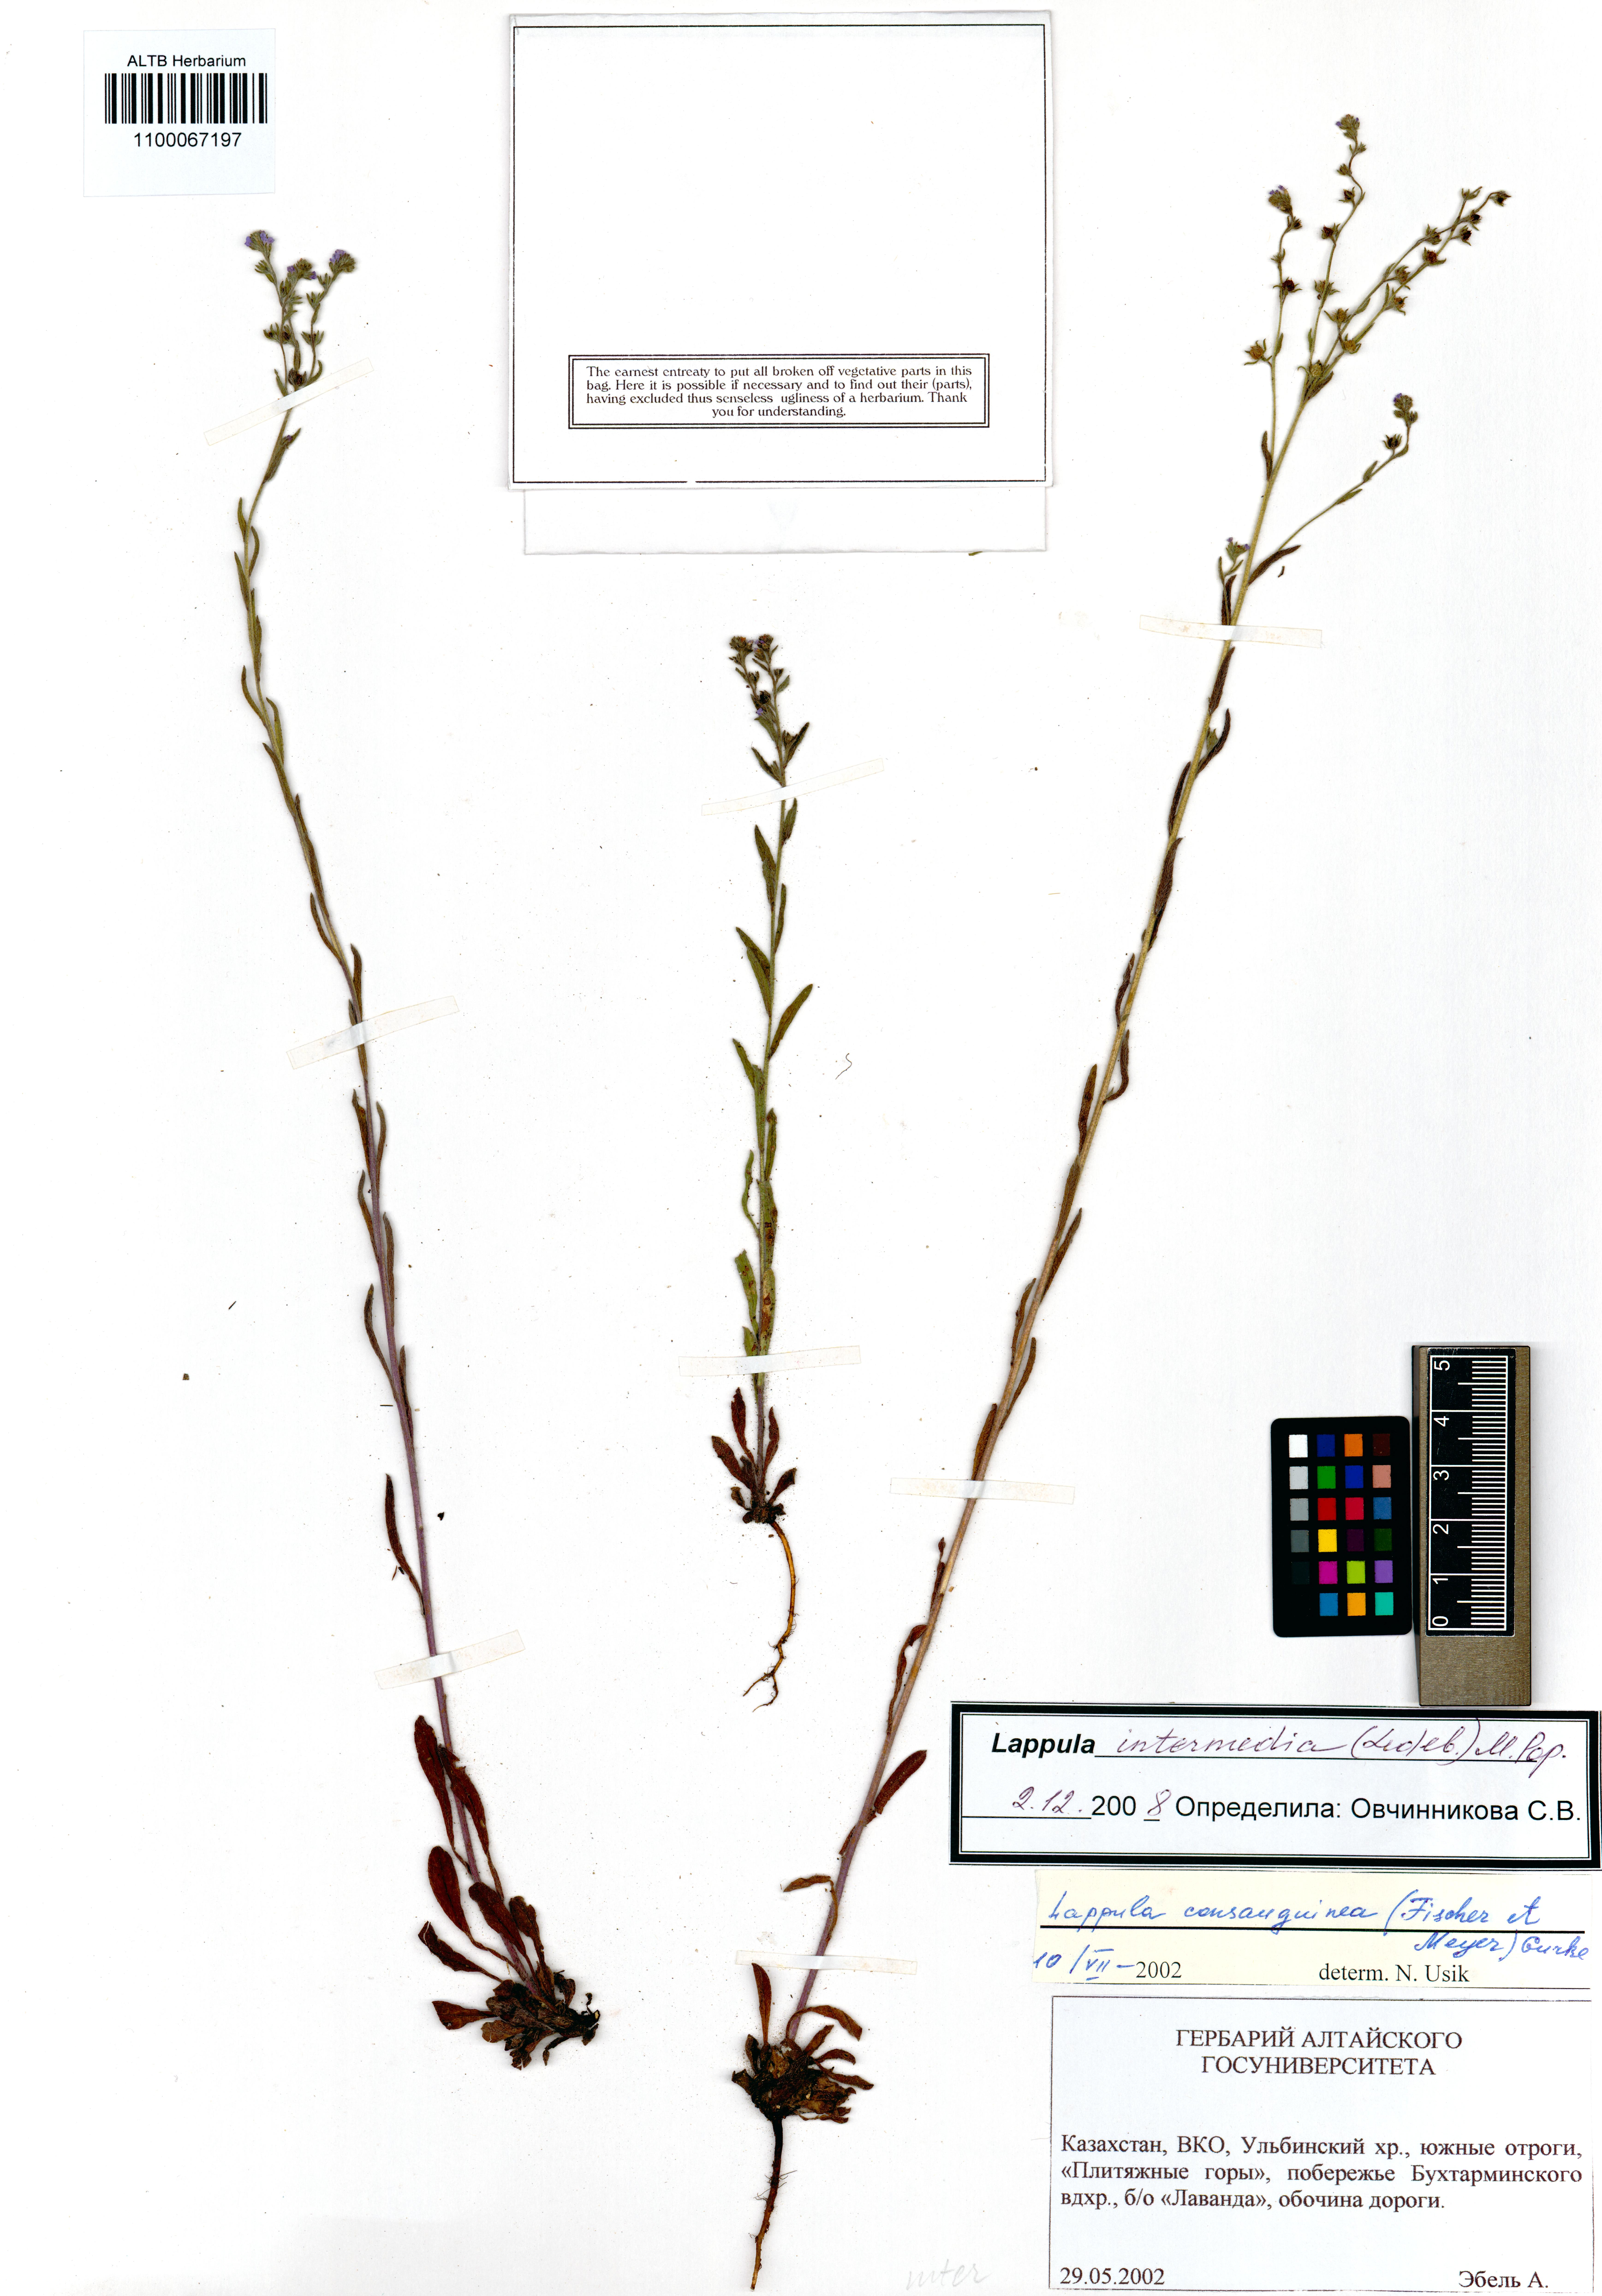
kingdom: Plantae
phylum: Tracheophyta
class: Magnoliopsida
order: Boraginales
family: Boraginaceae
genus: Lappula
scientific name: Lappula intermedia
